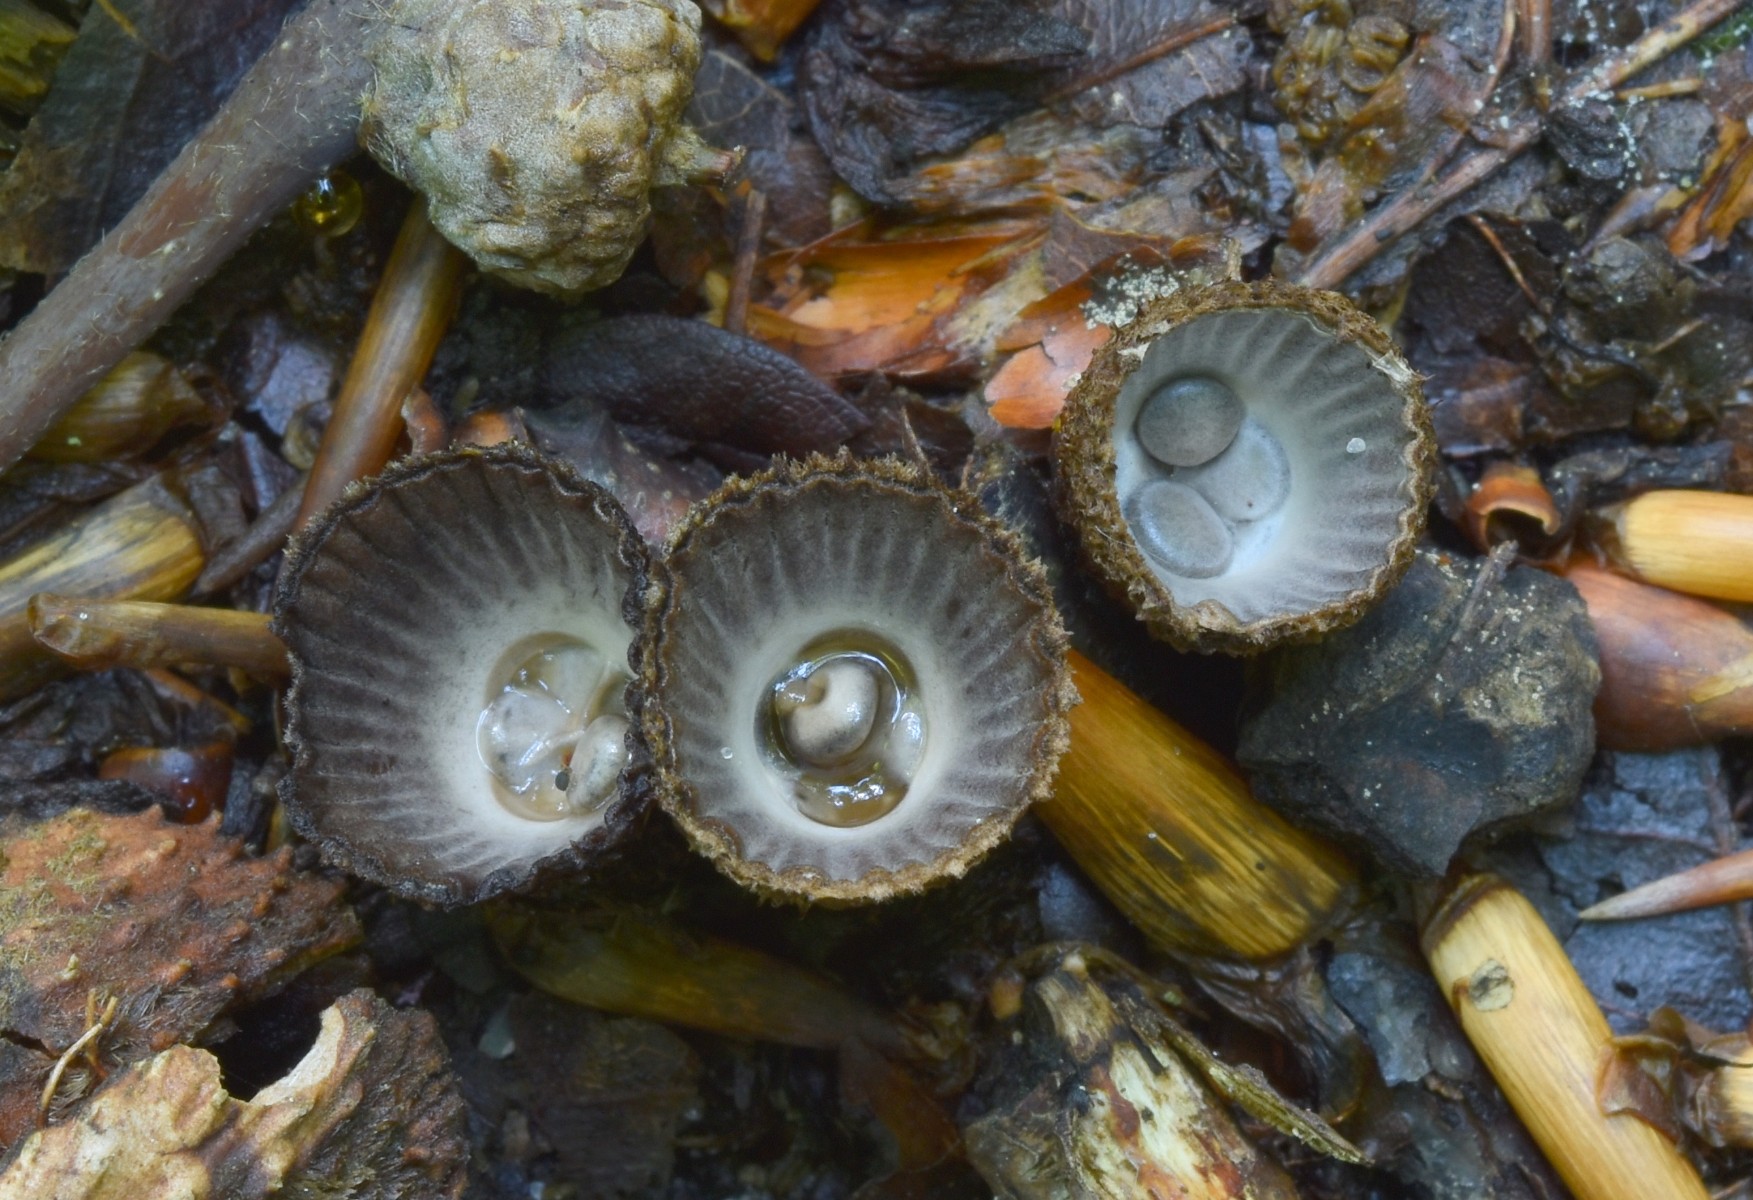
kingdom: Fungi
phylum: Basidiomycota
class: Agaricomycetes
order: Agaricales
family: Agaricaceae
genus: Cyathus
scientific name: Cyathus striatus
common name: stribet redesvamp
